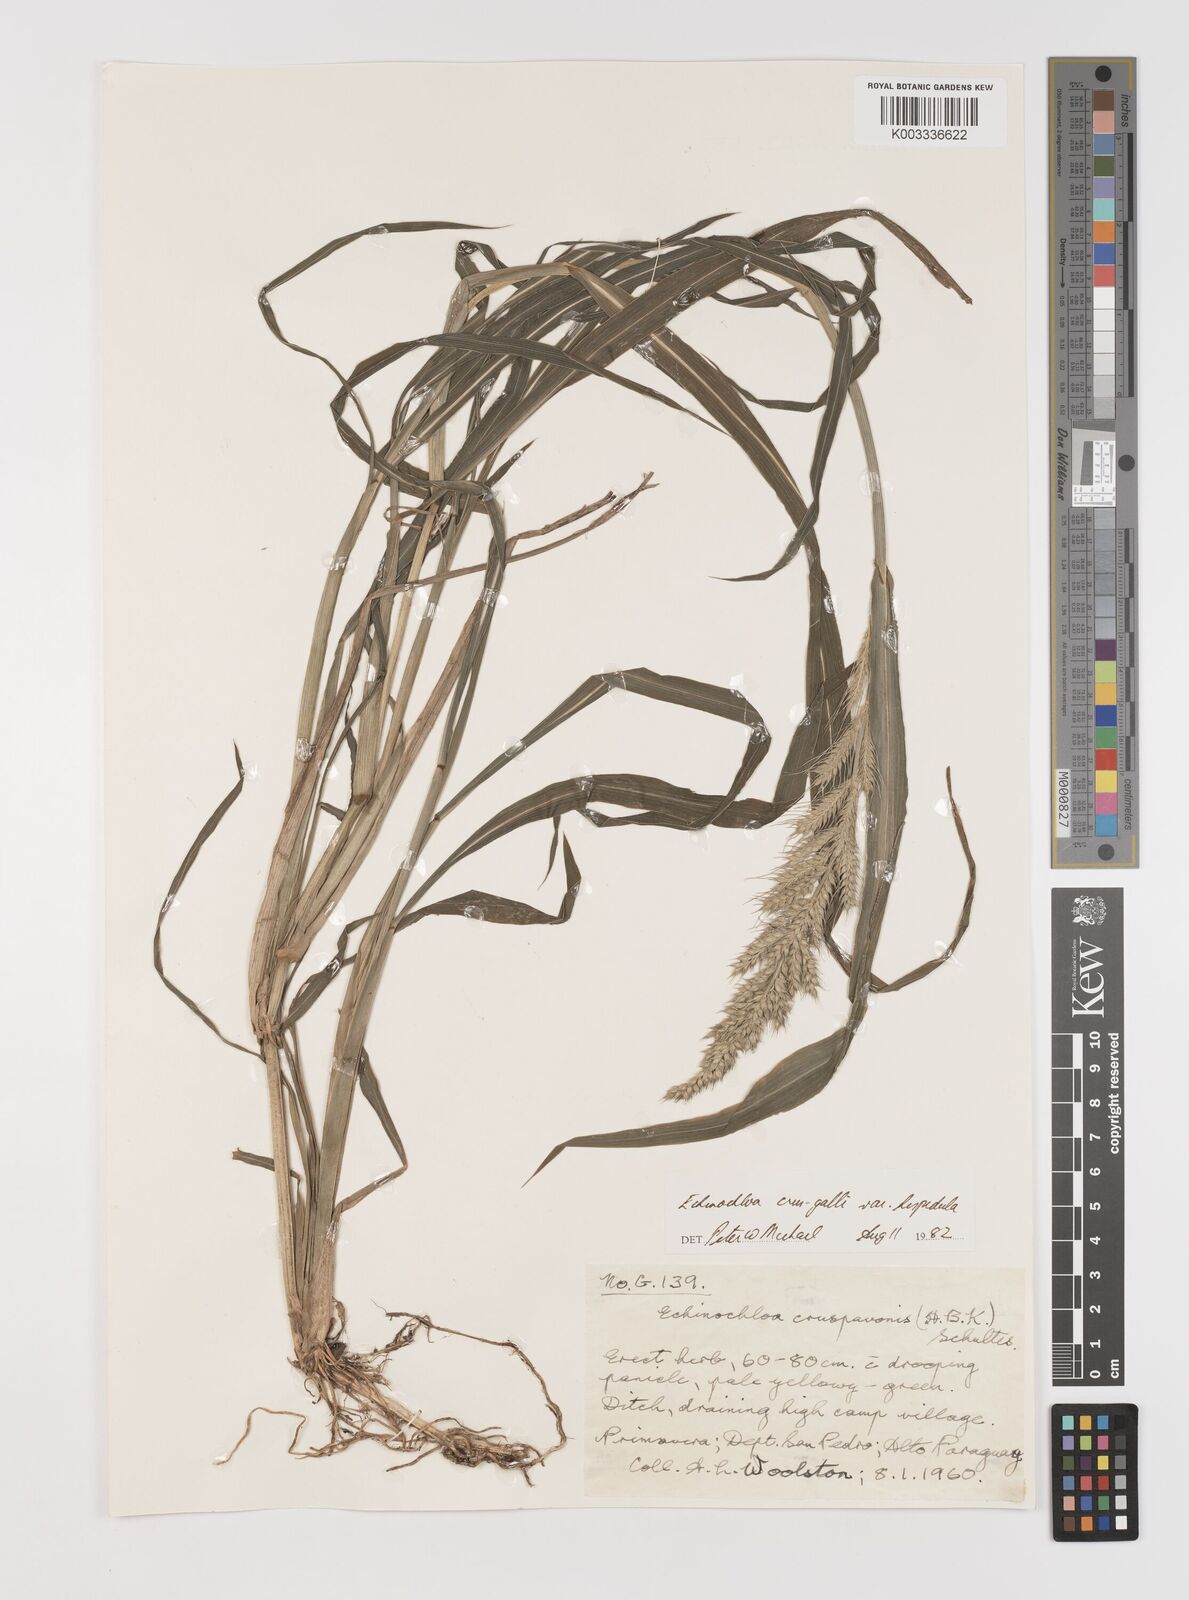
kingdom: Plantae
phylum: Tracheophyta
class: Liliopsida
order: Poales
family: Poaceae
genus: Echinochloa
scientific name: Echinochloa crus-galli
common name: Cockspur
